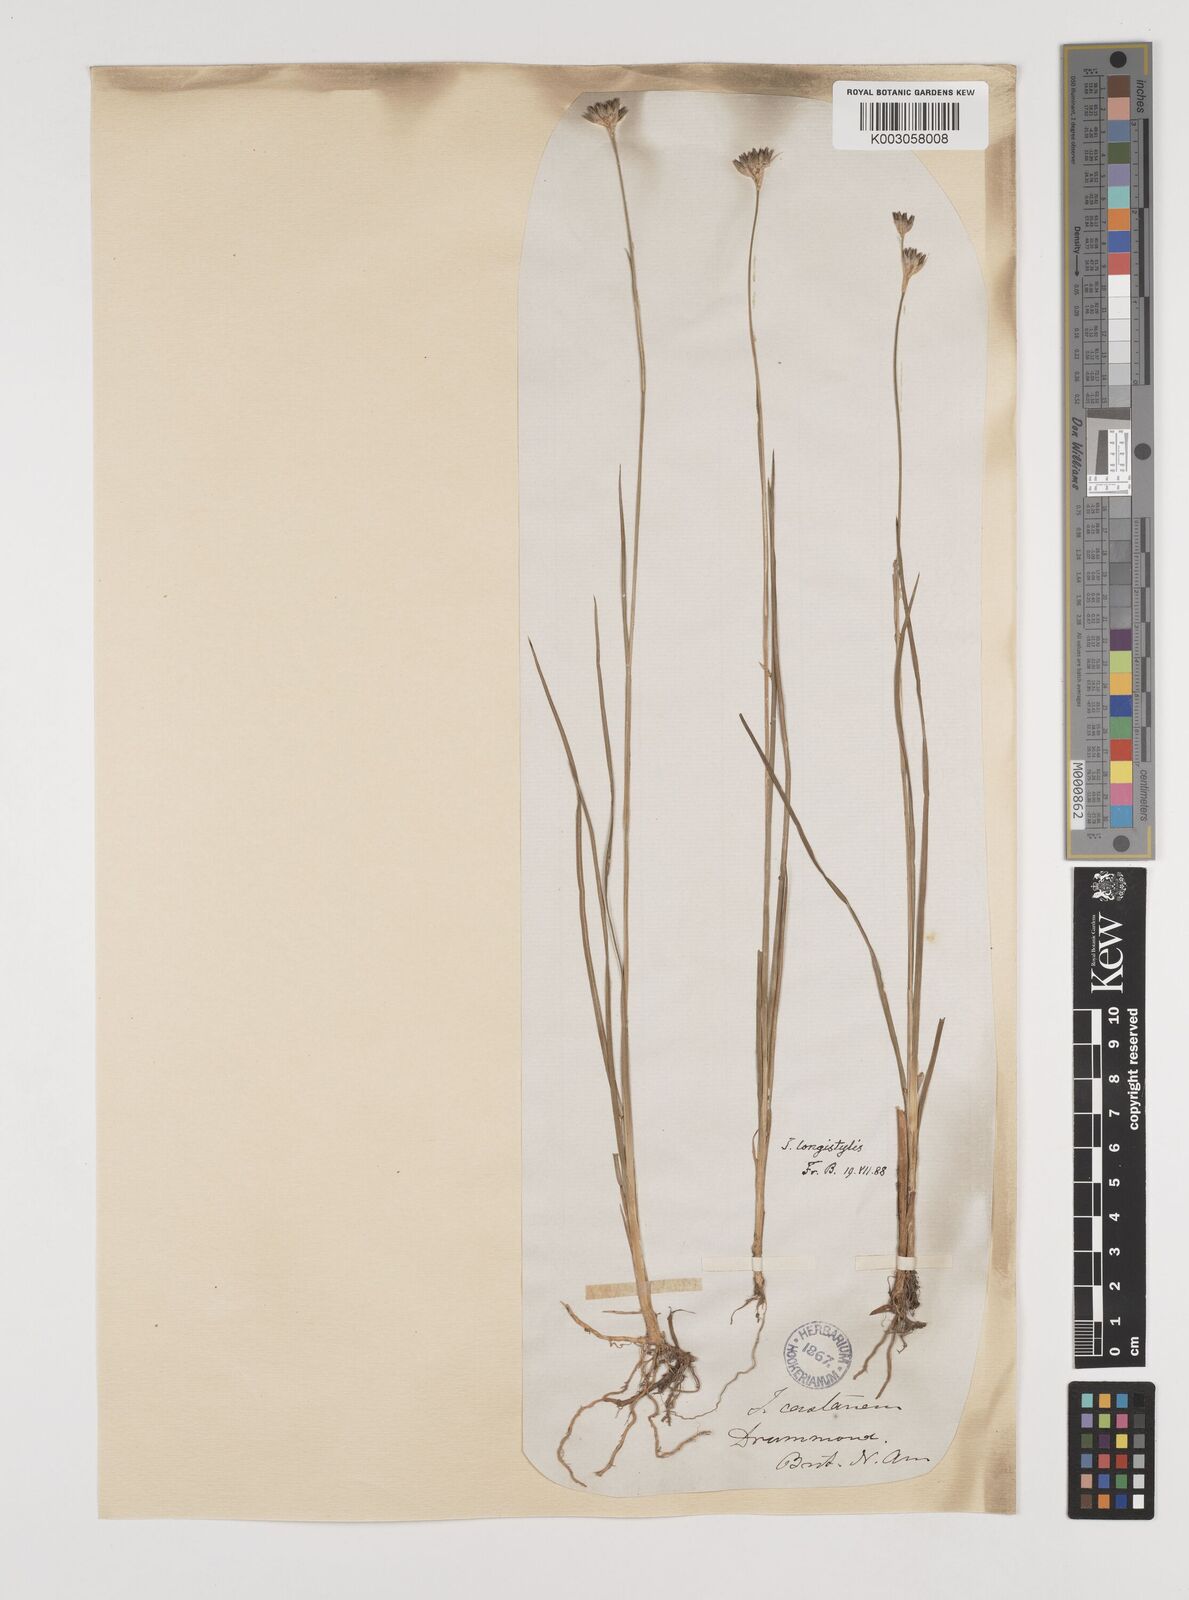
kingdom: Plantae
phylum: Tracheophyta
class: Liliopsida
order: Poales
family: Juncaceae
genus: Juncus
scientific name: Juncus longistylis
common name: Long-style rush
